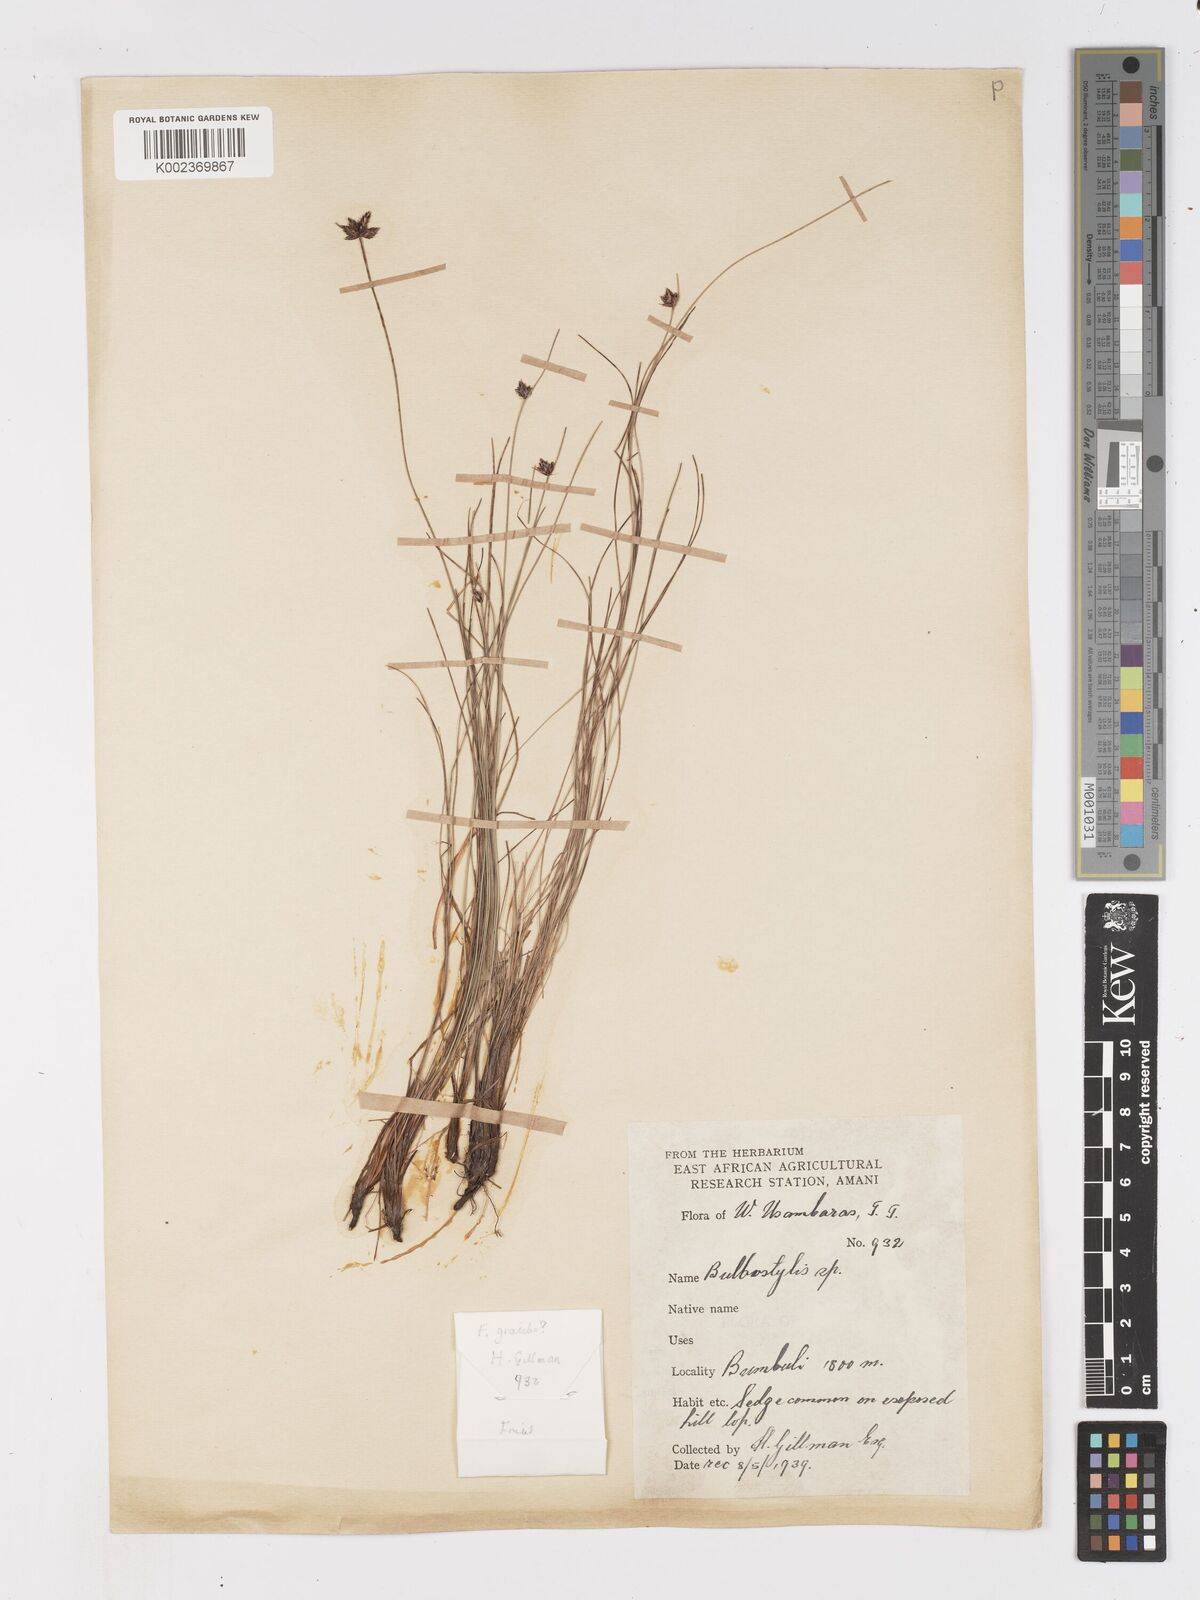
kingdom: Plantae
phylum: Tracheophyta
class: Liliopsida
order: Poales
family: Cyperaceae
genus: Ficinia
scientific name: Ficinia filiformis
